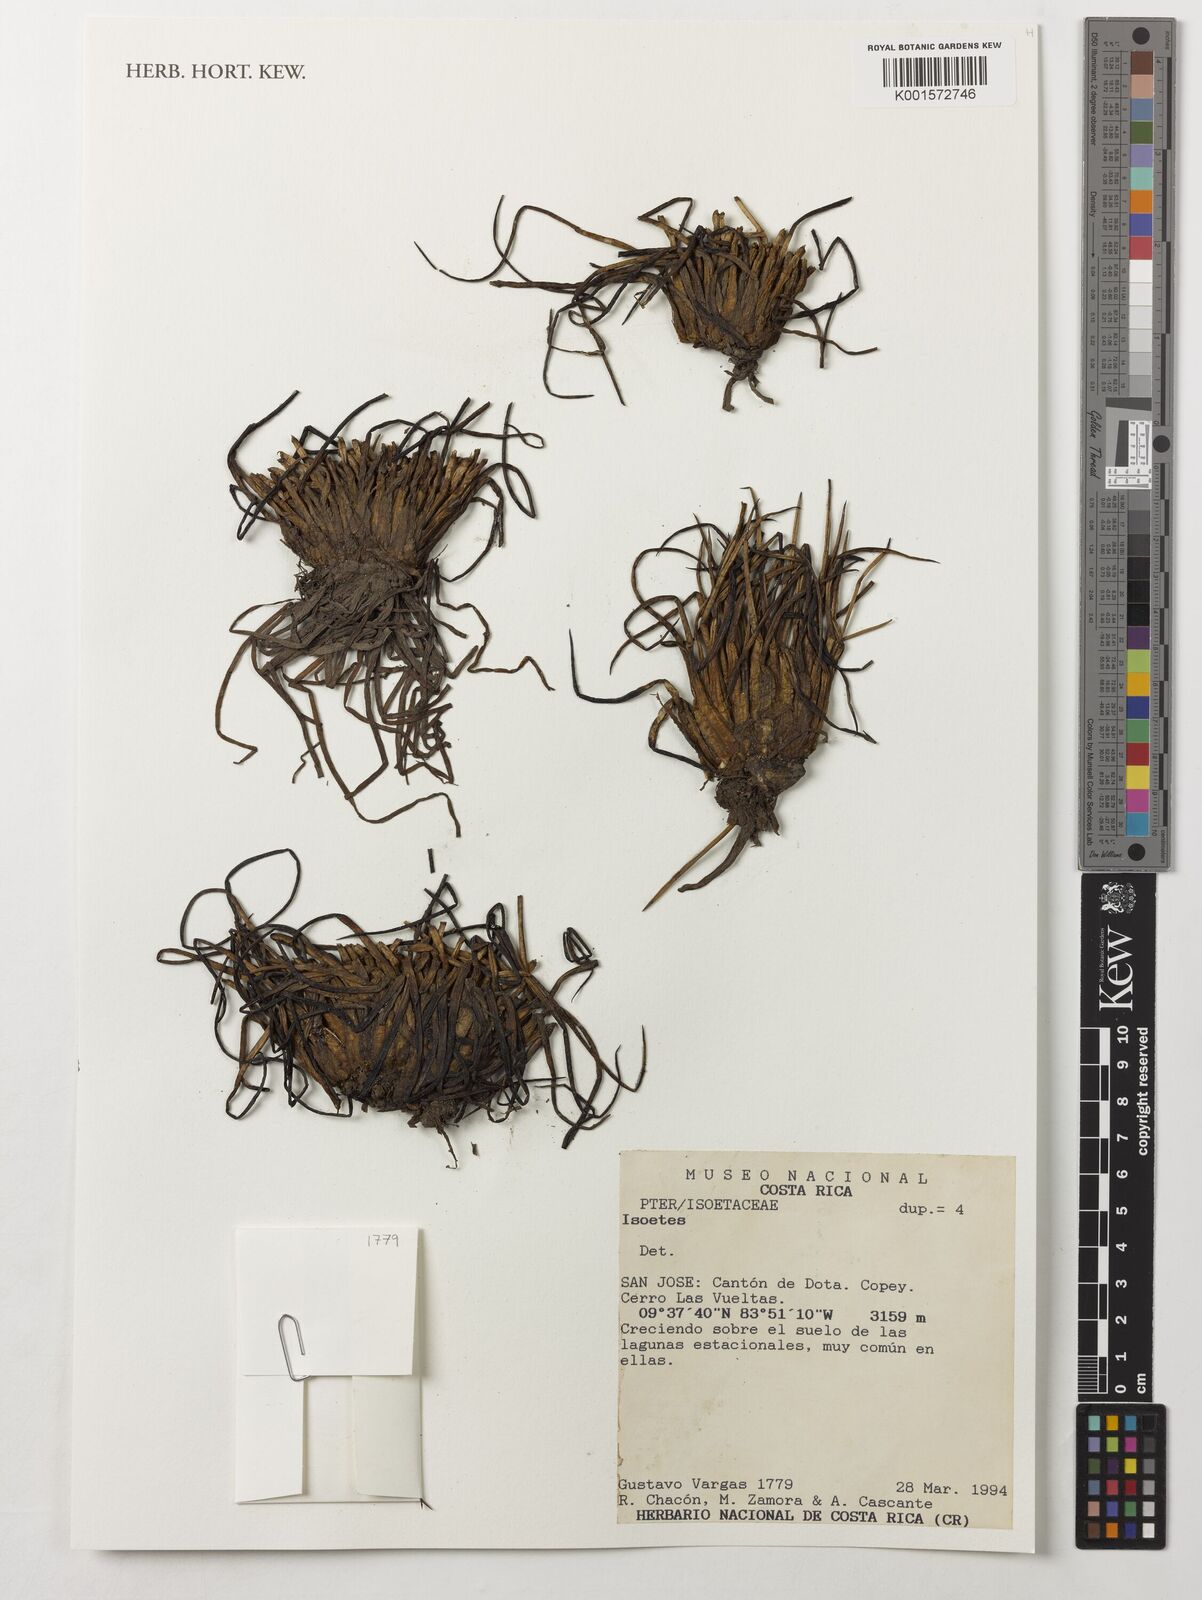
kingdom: Plantae
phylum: Tracheophyta
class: Lycopodiopsida
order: Isoetales
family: Isoetaceae
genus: Isoetes
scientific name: Isoetes
